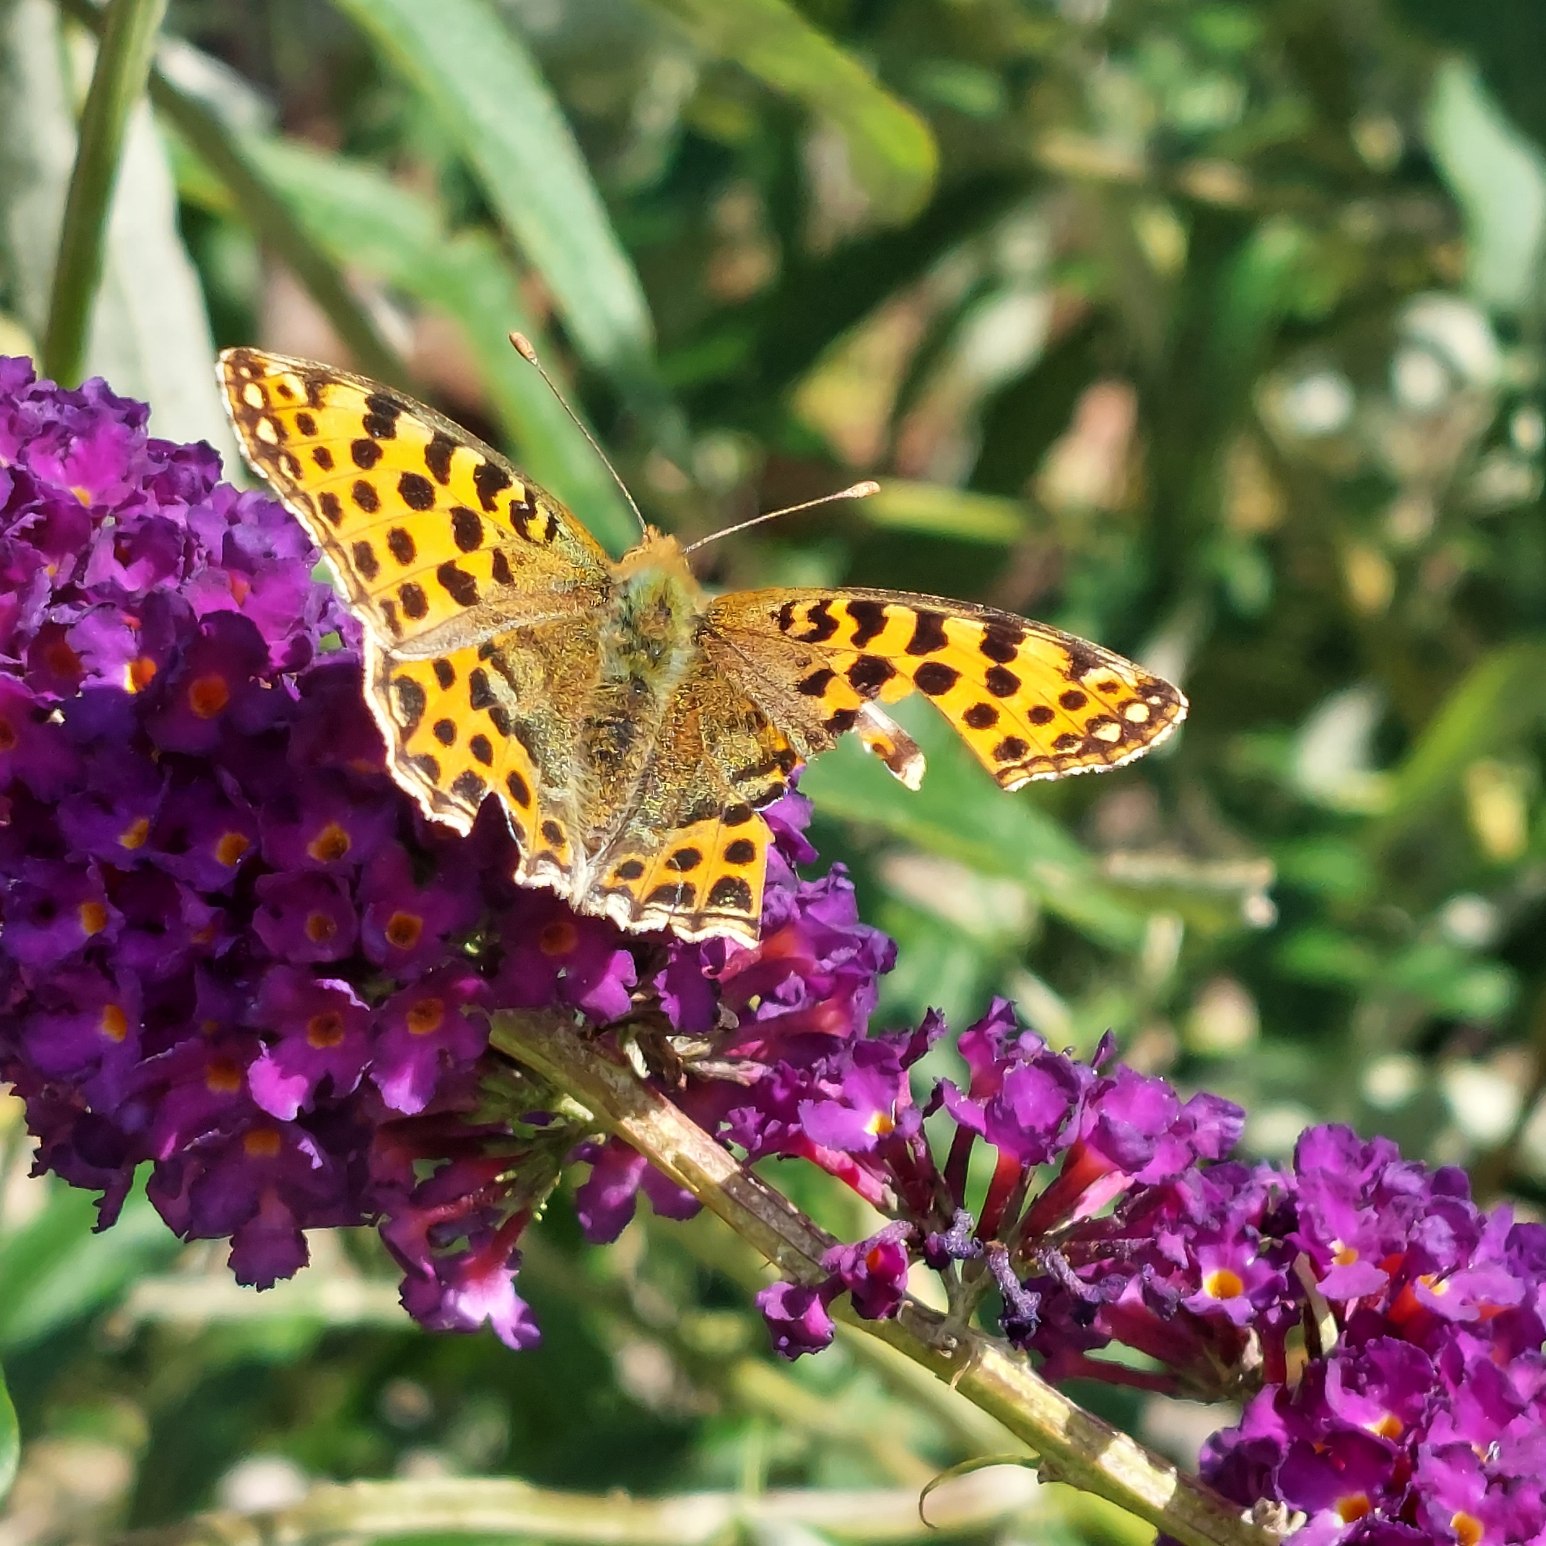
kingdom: Animalia
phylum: Arthropoda
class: Insecta
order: Lepidoptera
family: Nymphalidae
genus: Issoria
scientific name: Issoria lathonia
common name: Storplettet perlemorsommerfugl
